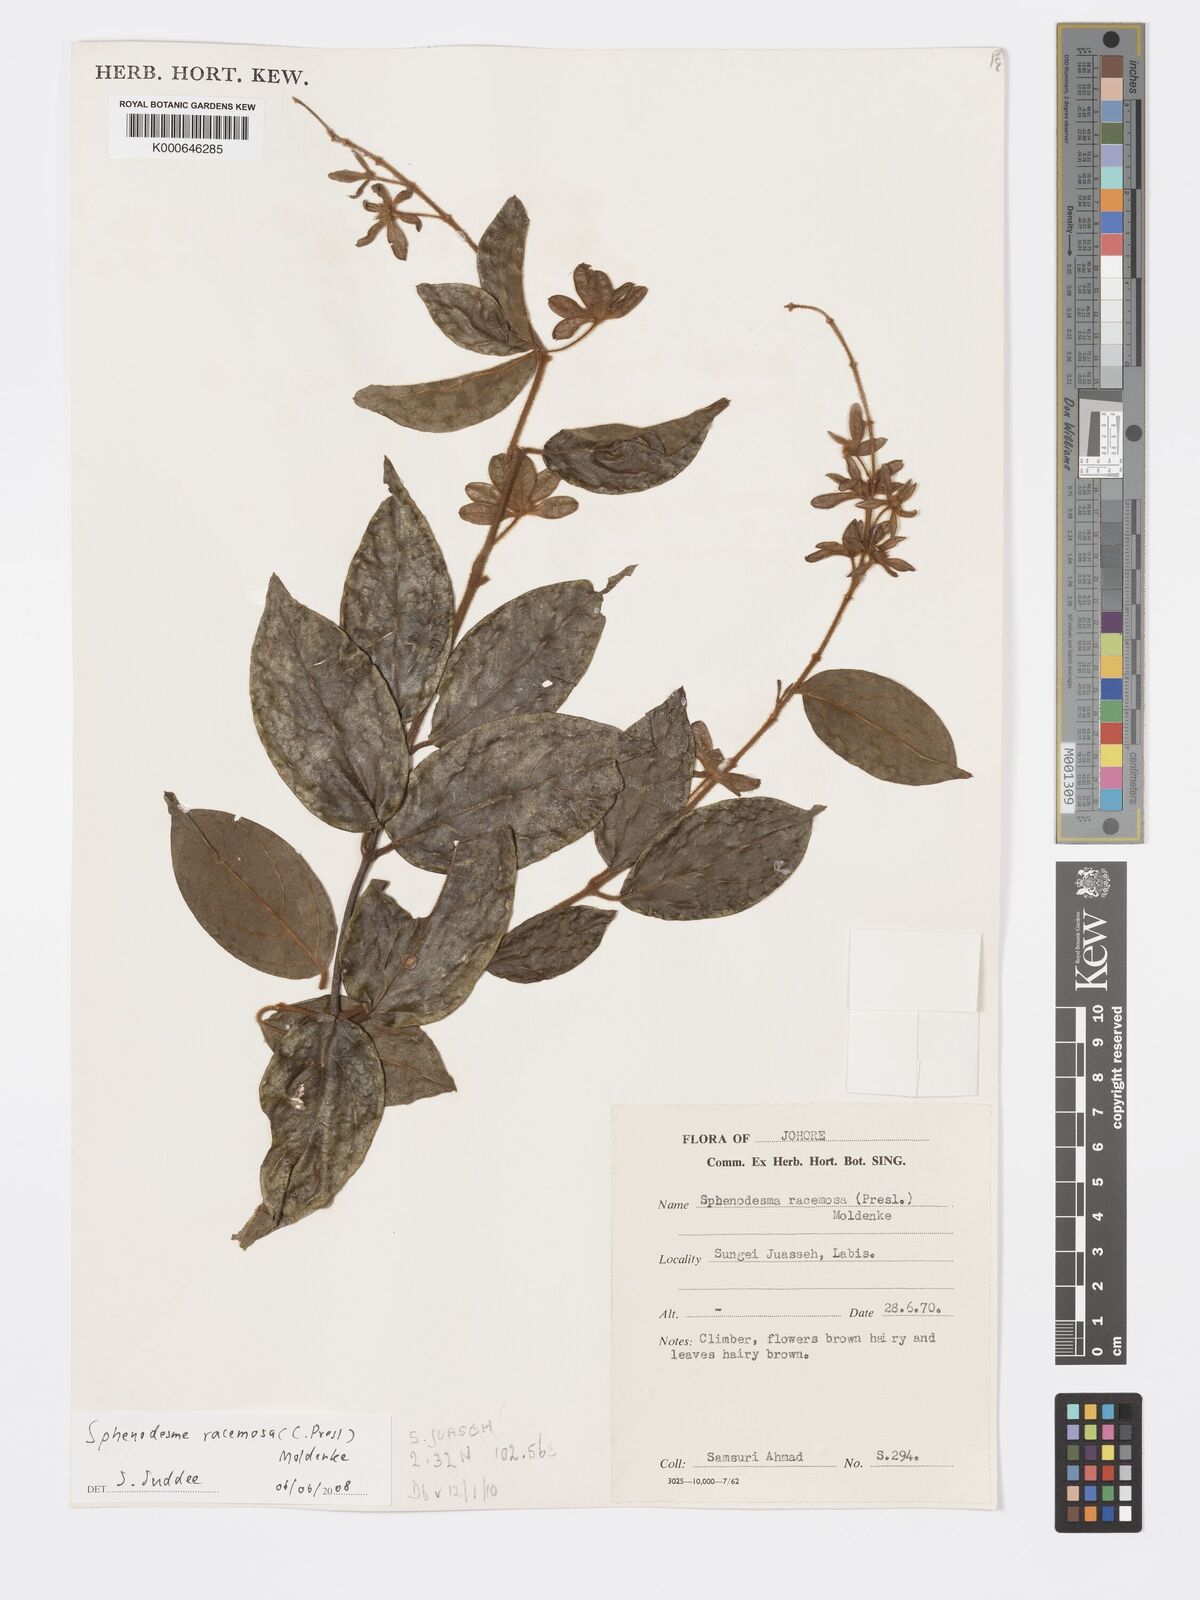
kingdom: Plantae
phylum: Tracheophyta
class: Magnoliopsida
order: Lamiales
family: Lamiaceae
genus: Sphenodesme
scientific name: Sphenodesme racemosa
